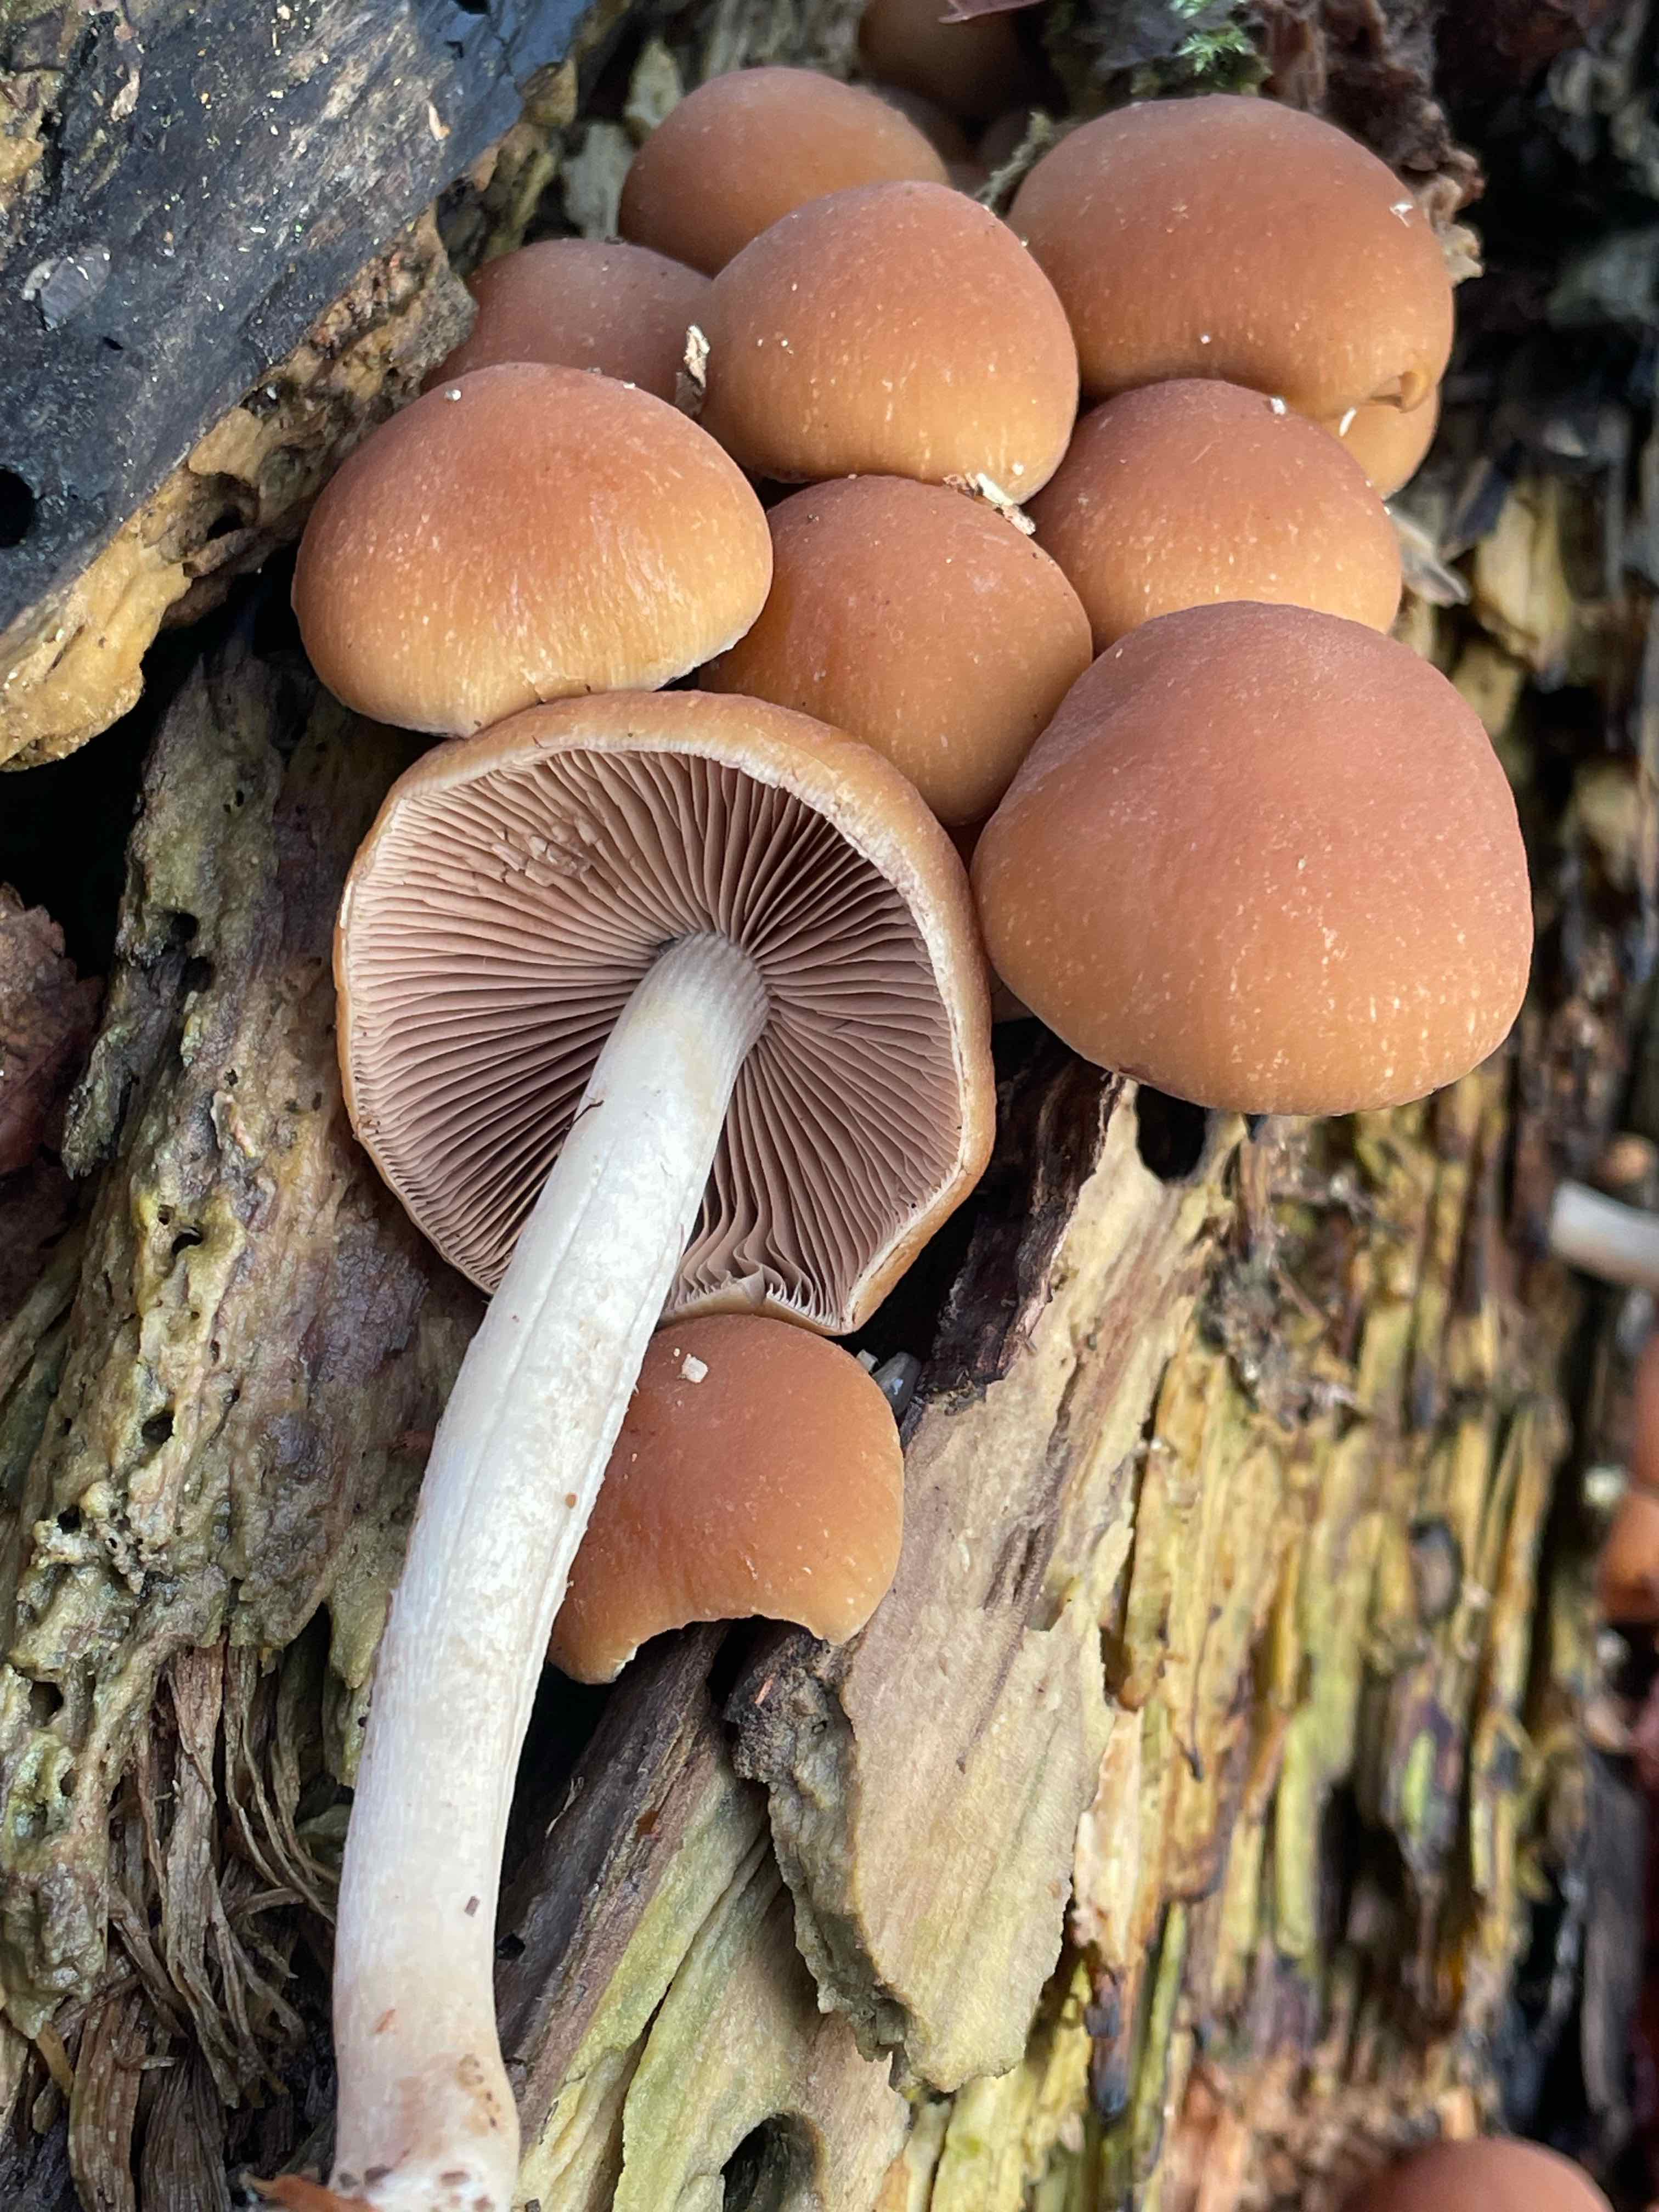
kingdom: Fungi
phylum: Basidiomycota
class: Agaricomycetes
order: Agaricales
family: Psathyrellaceae
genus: Psathyrella
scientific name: Psathyrella piluliformis
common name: lysstokket mørkhat
